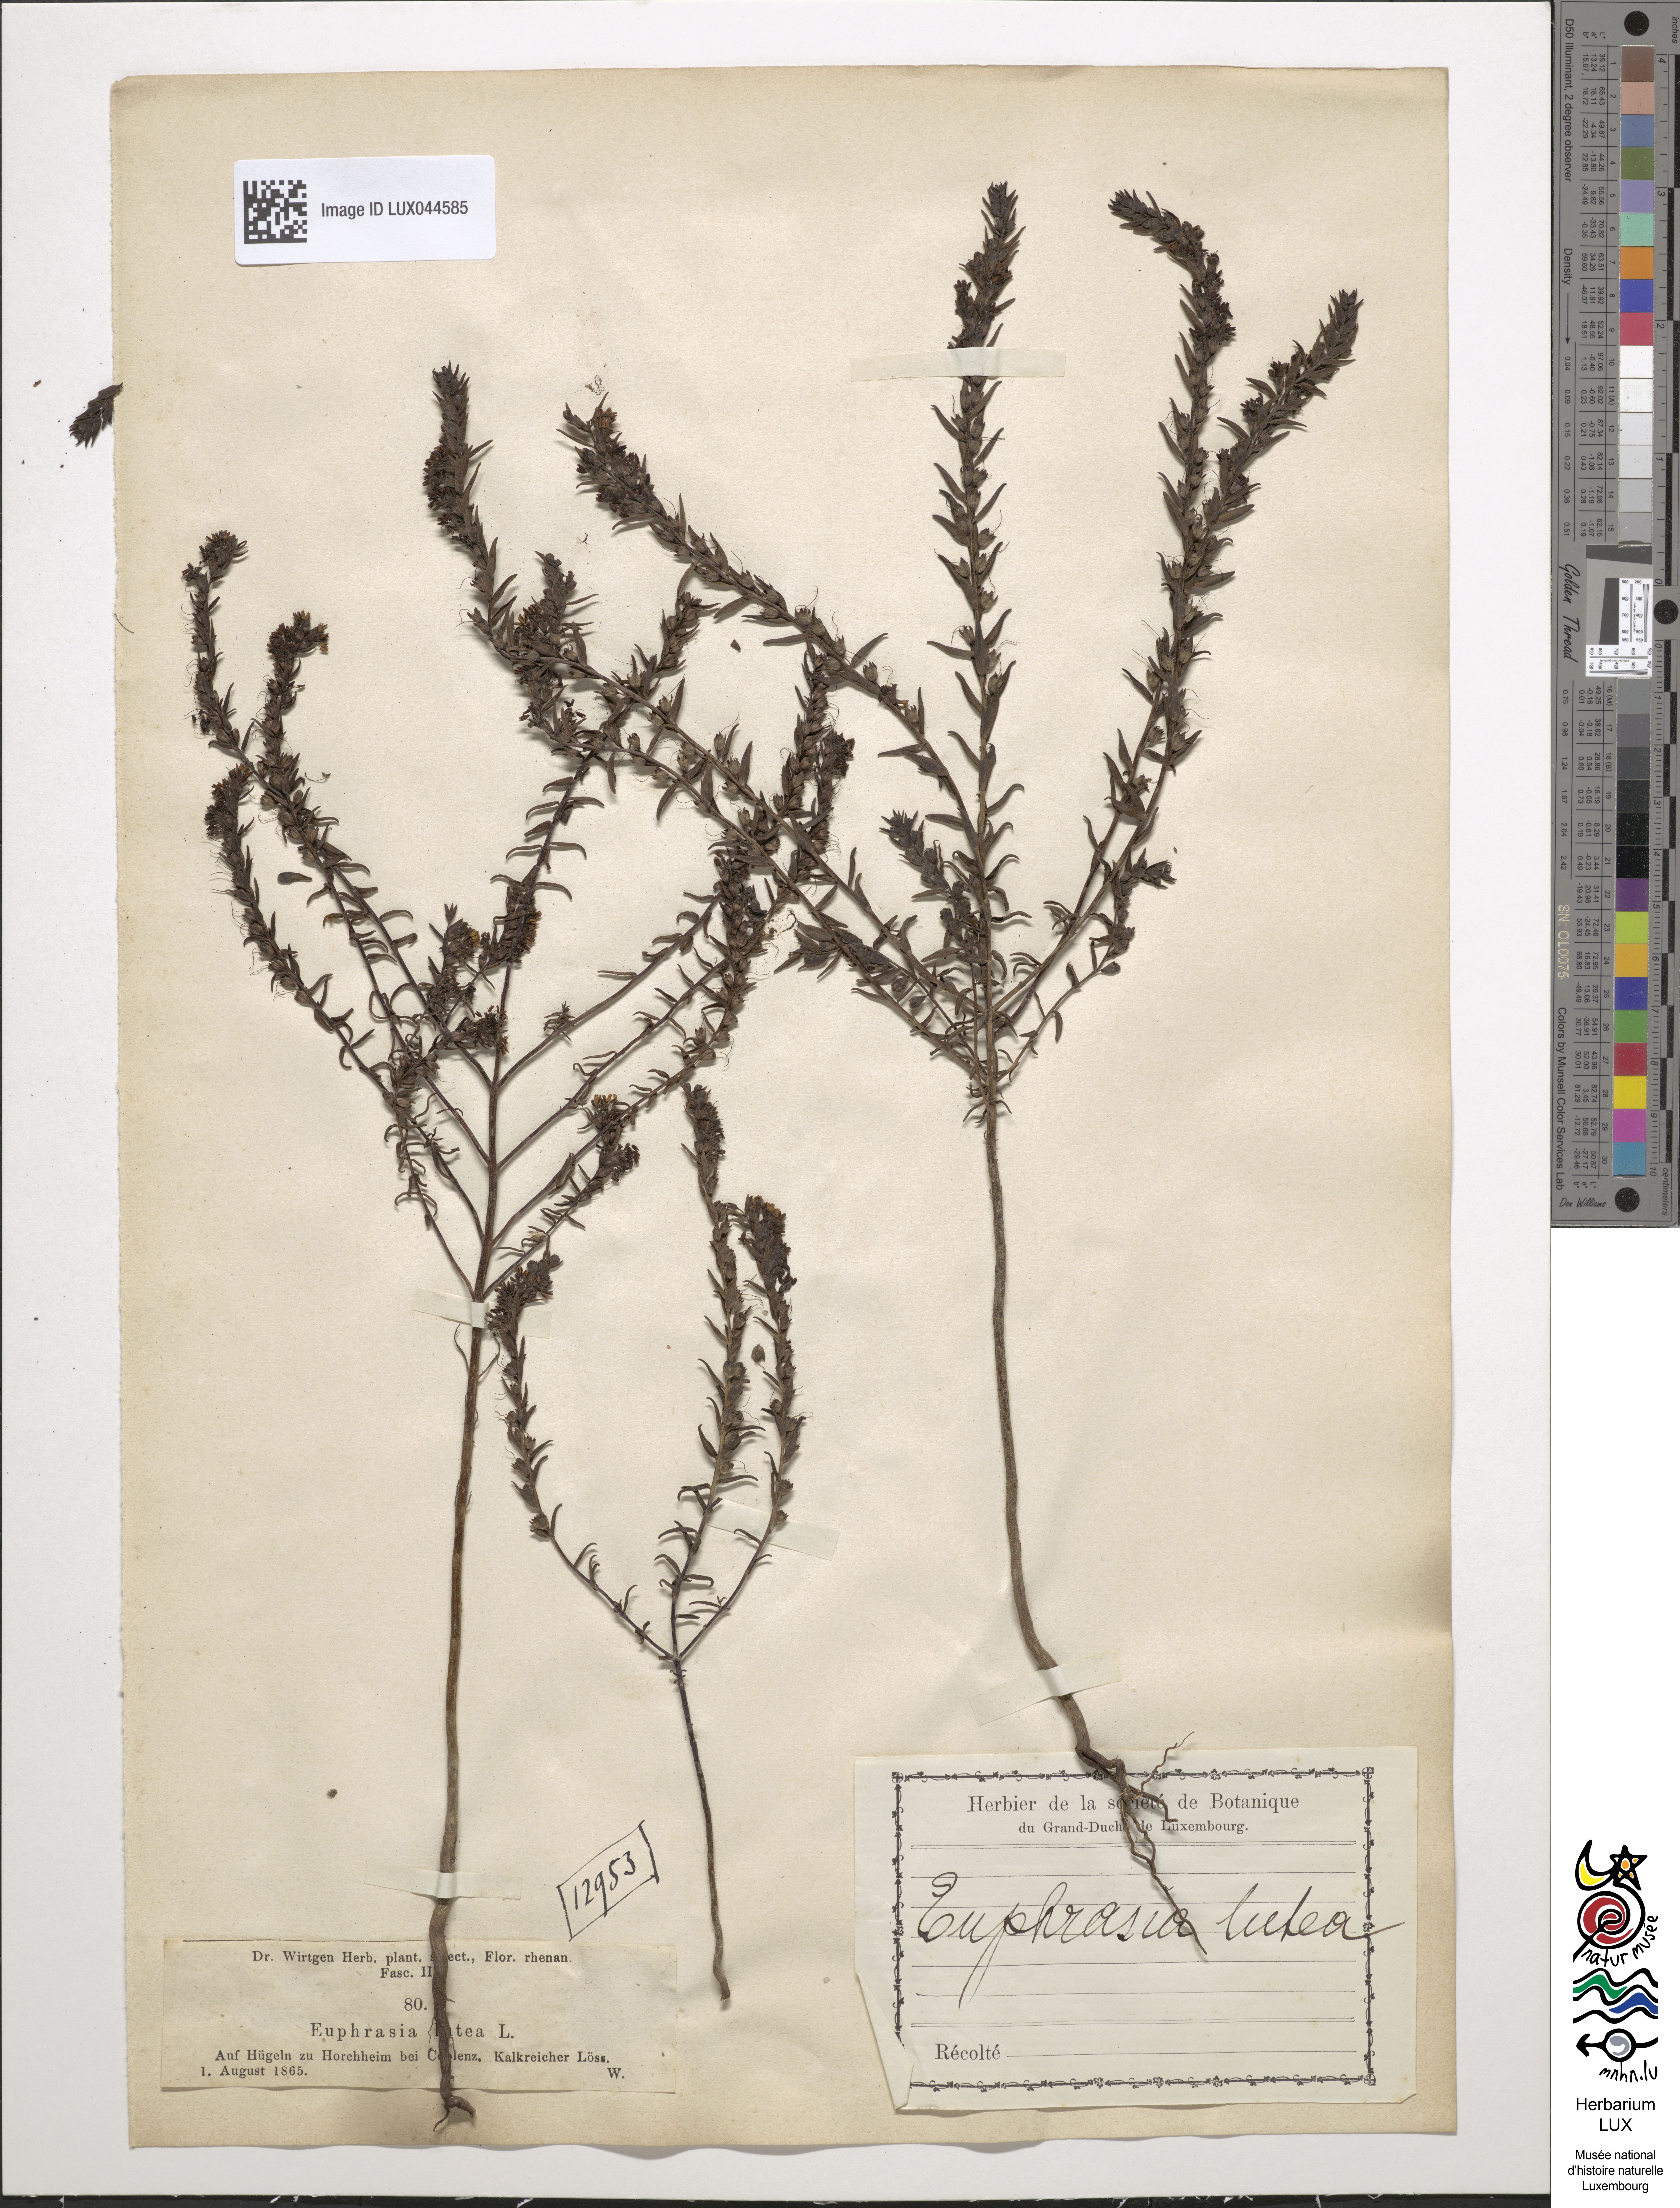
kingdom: Plantae
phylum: Tracheophyta
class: Magnoliopsida
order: Lamiales
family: Orobanchaceae
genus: Odontites
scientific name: Odontites luteus
